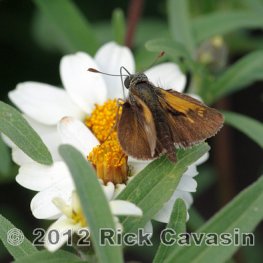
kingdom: Animalia
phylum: Arthropoda
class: Insecta
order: Lepidoptera
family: Hesperiidae
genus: Polites
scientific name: Polites themistocles
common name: Tawny-edged Skipper
